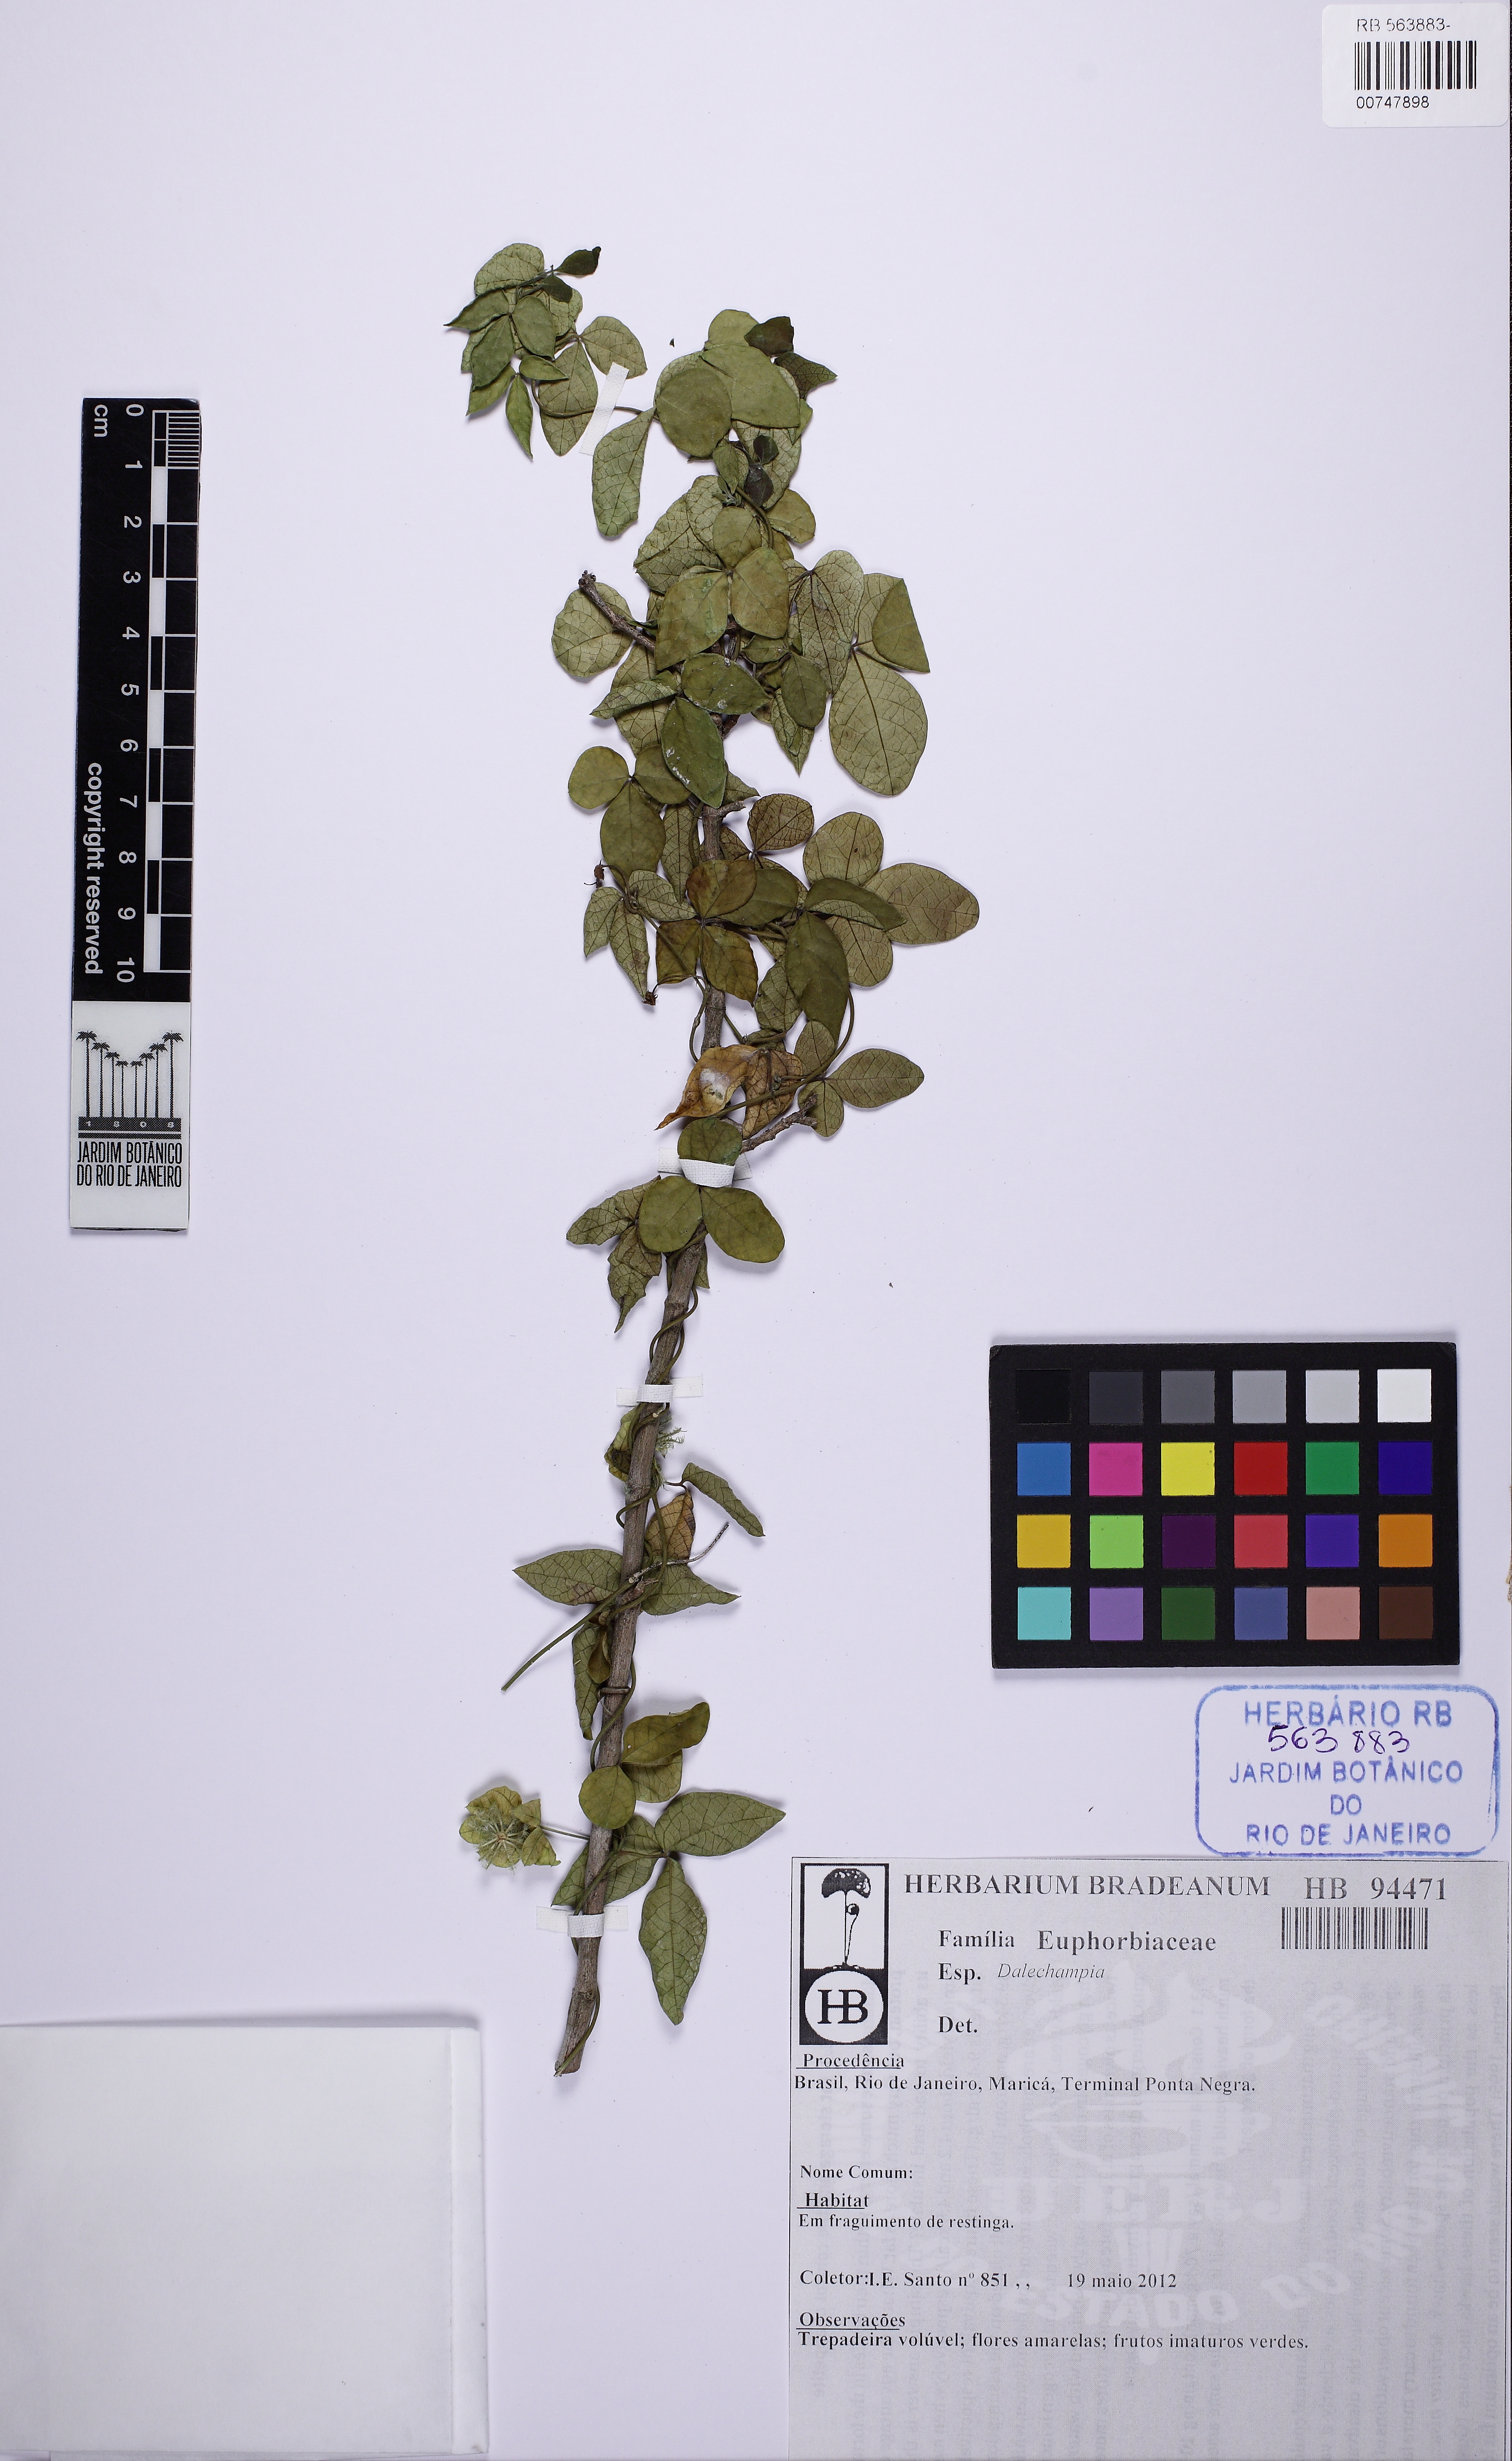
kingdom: Plantae
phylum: Tracheophyta
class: Magnoliopsida
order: Malpighiales
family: Euphorbiaceae
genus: Dalechampia
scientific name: Dalechampia micromeria
